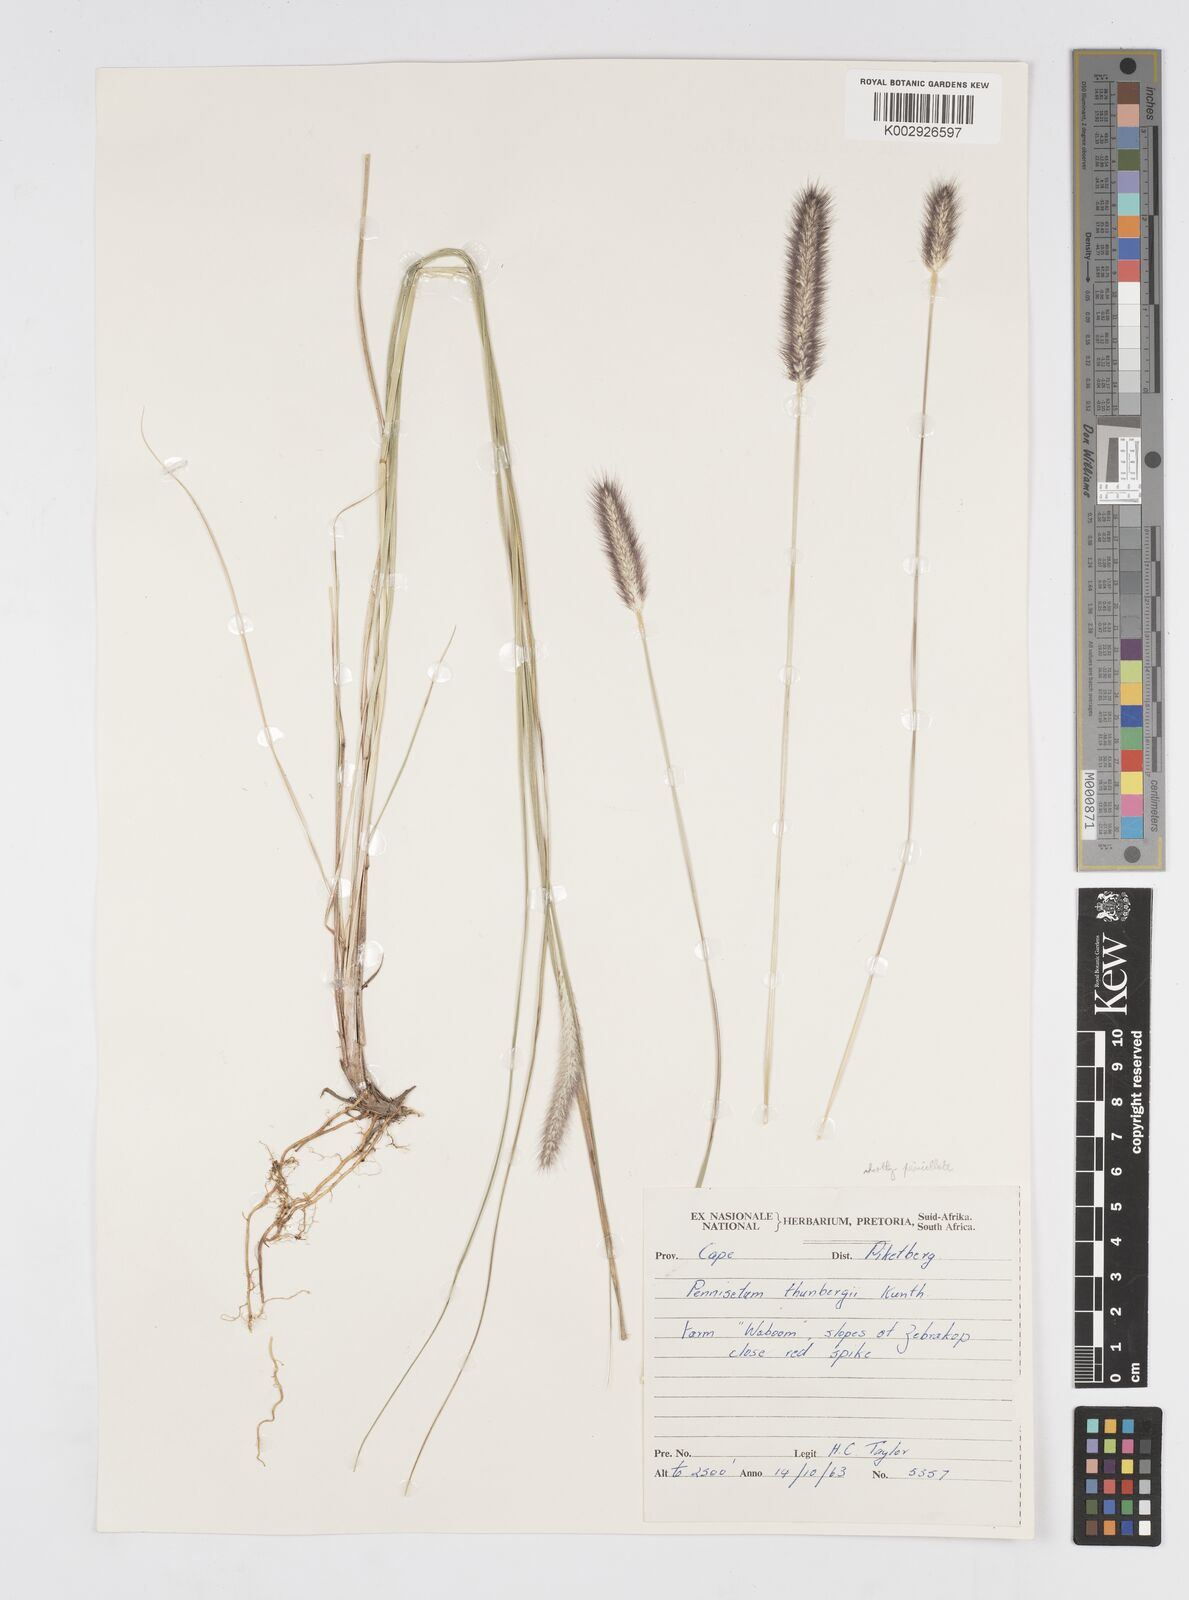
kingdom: Plantae
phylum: Tracheophyta
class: Liliopsida
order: Poales
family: Poaceae
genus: Cenchrus
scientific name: Cenchrus geniculatus
